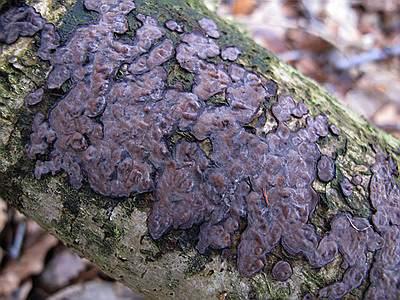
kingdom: Fungi
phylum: Basidiomycota
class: Agaricomycetes
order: Russulales
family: Peniophoraceae
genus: Peniophora
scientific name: Peniophora quercina
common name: ege-voksskind
